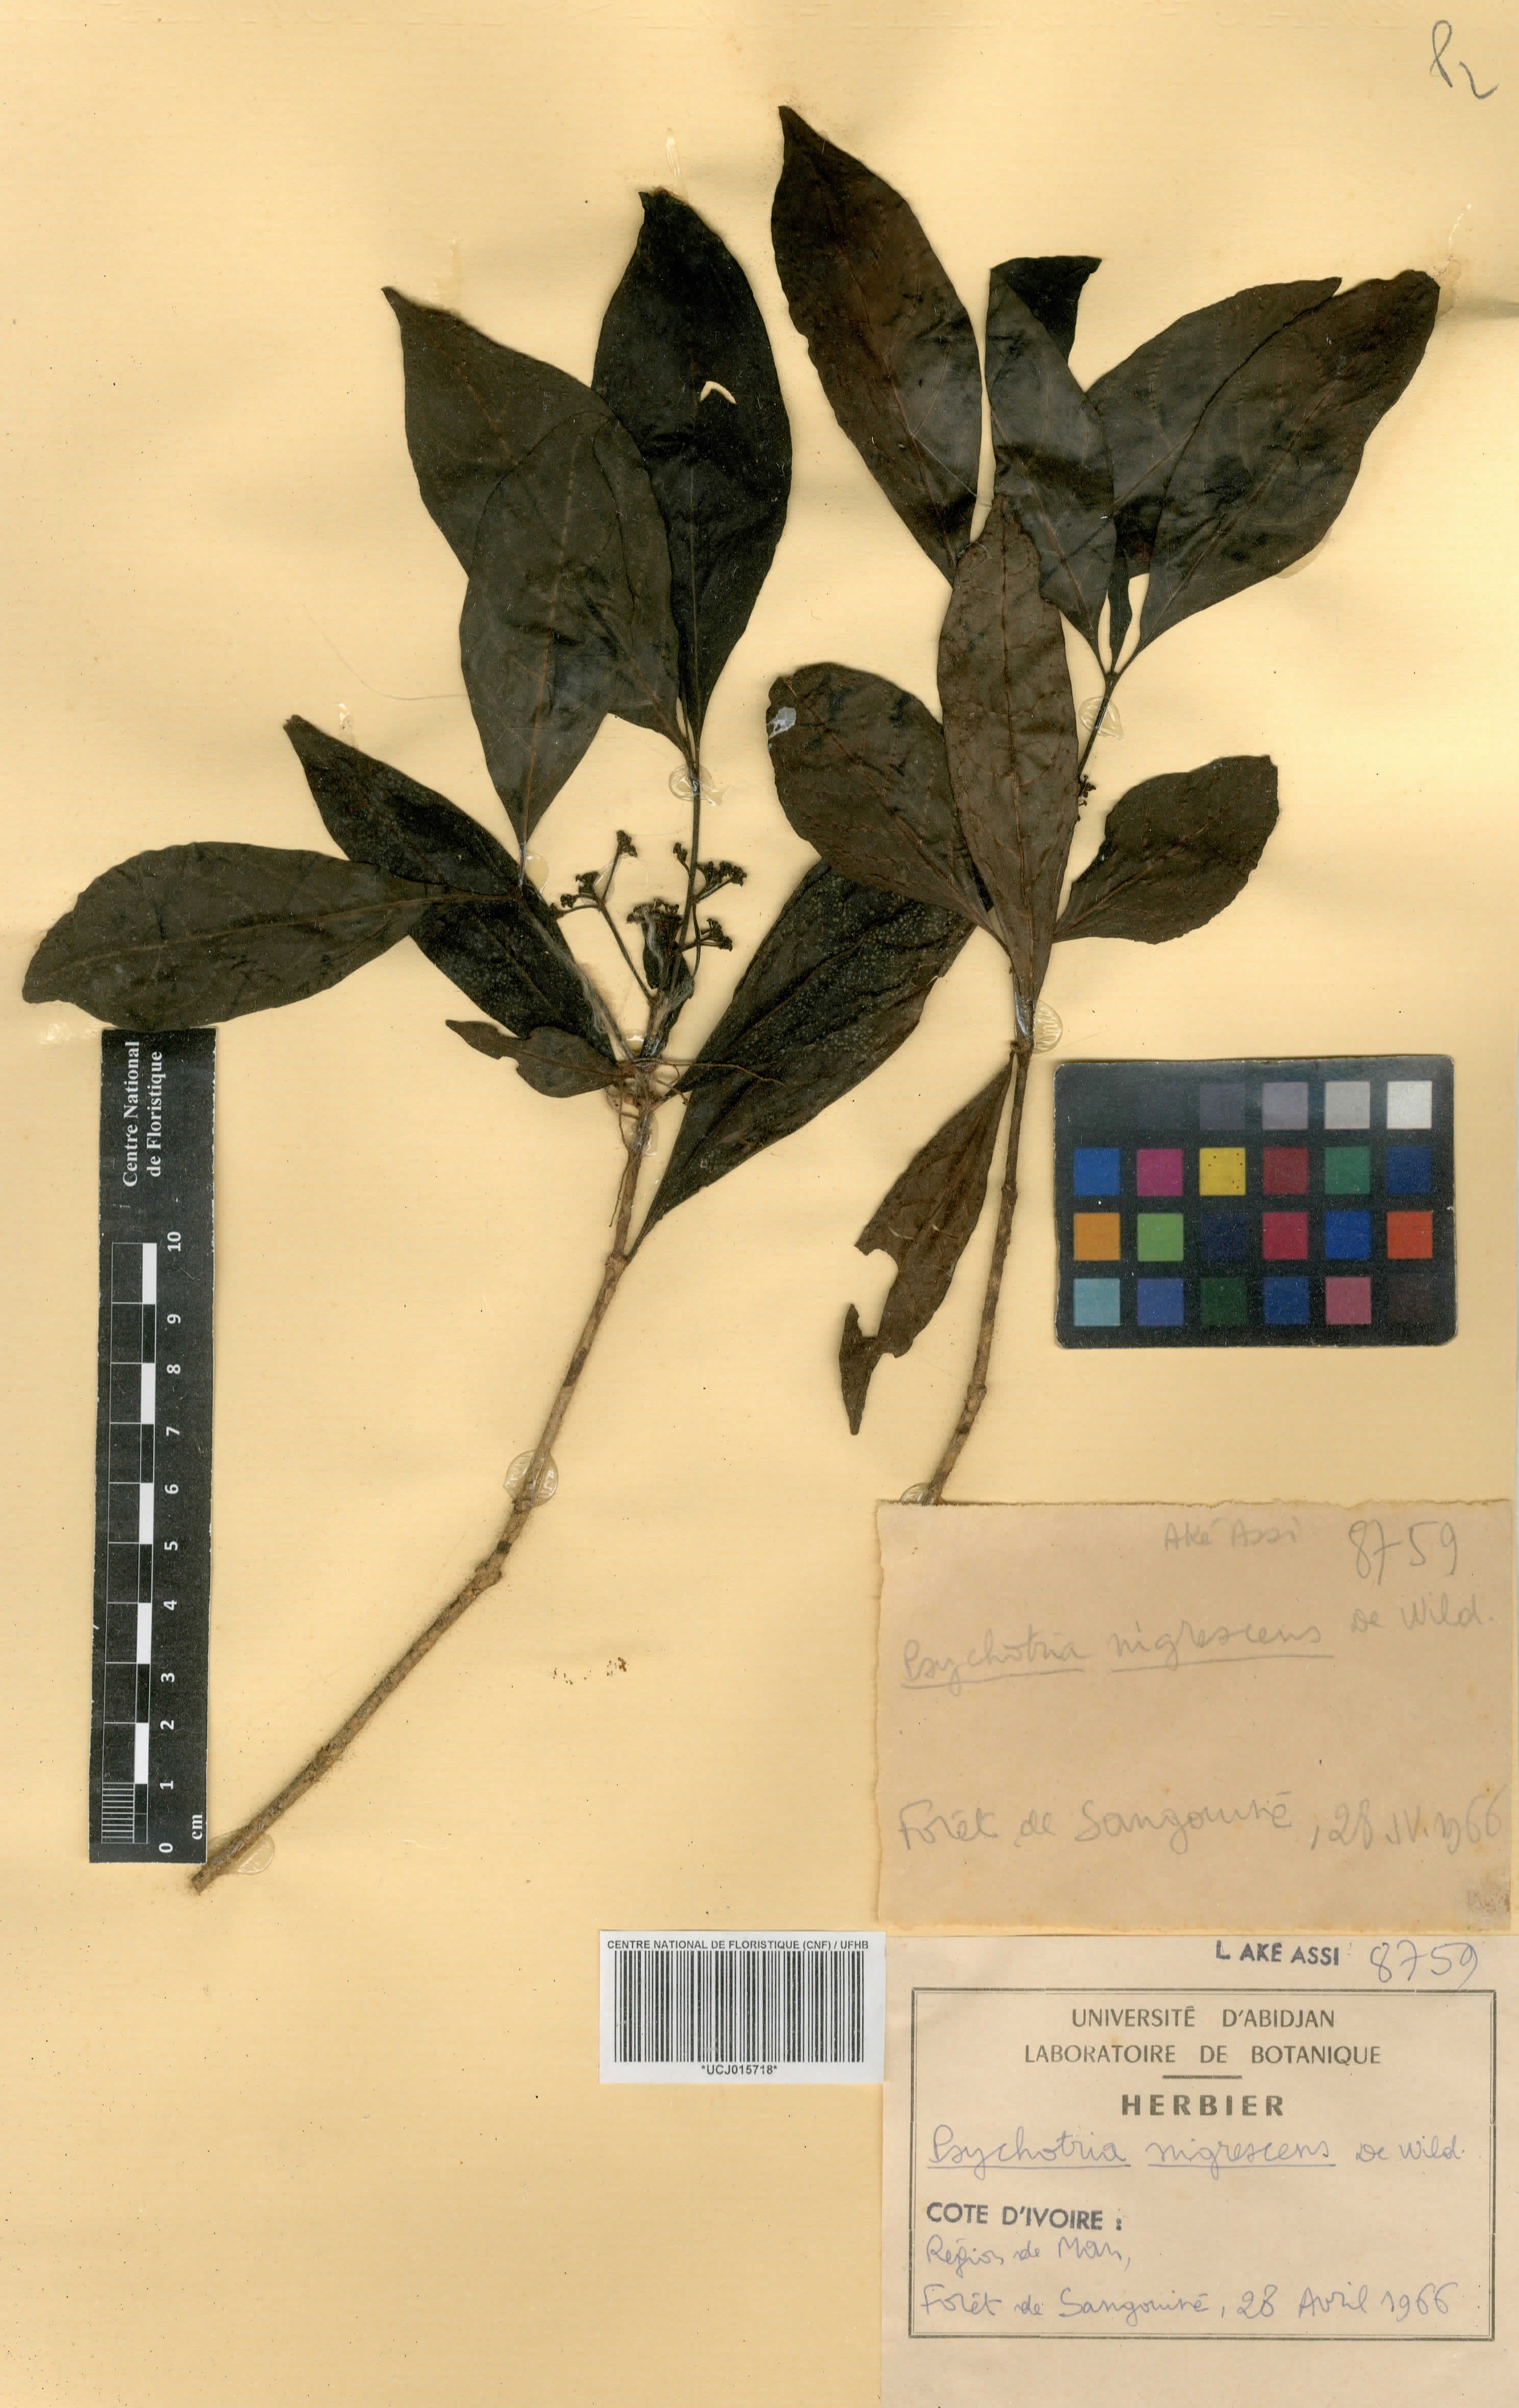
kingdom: Plantae
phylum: Tracheophyta
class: Magnoliopsida
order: Gentianales
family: Rubiaceae
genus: Psychotria
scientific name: Psychotria nigrescens
